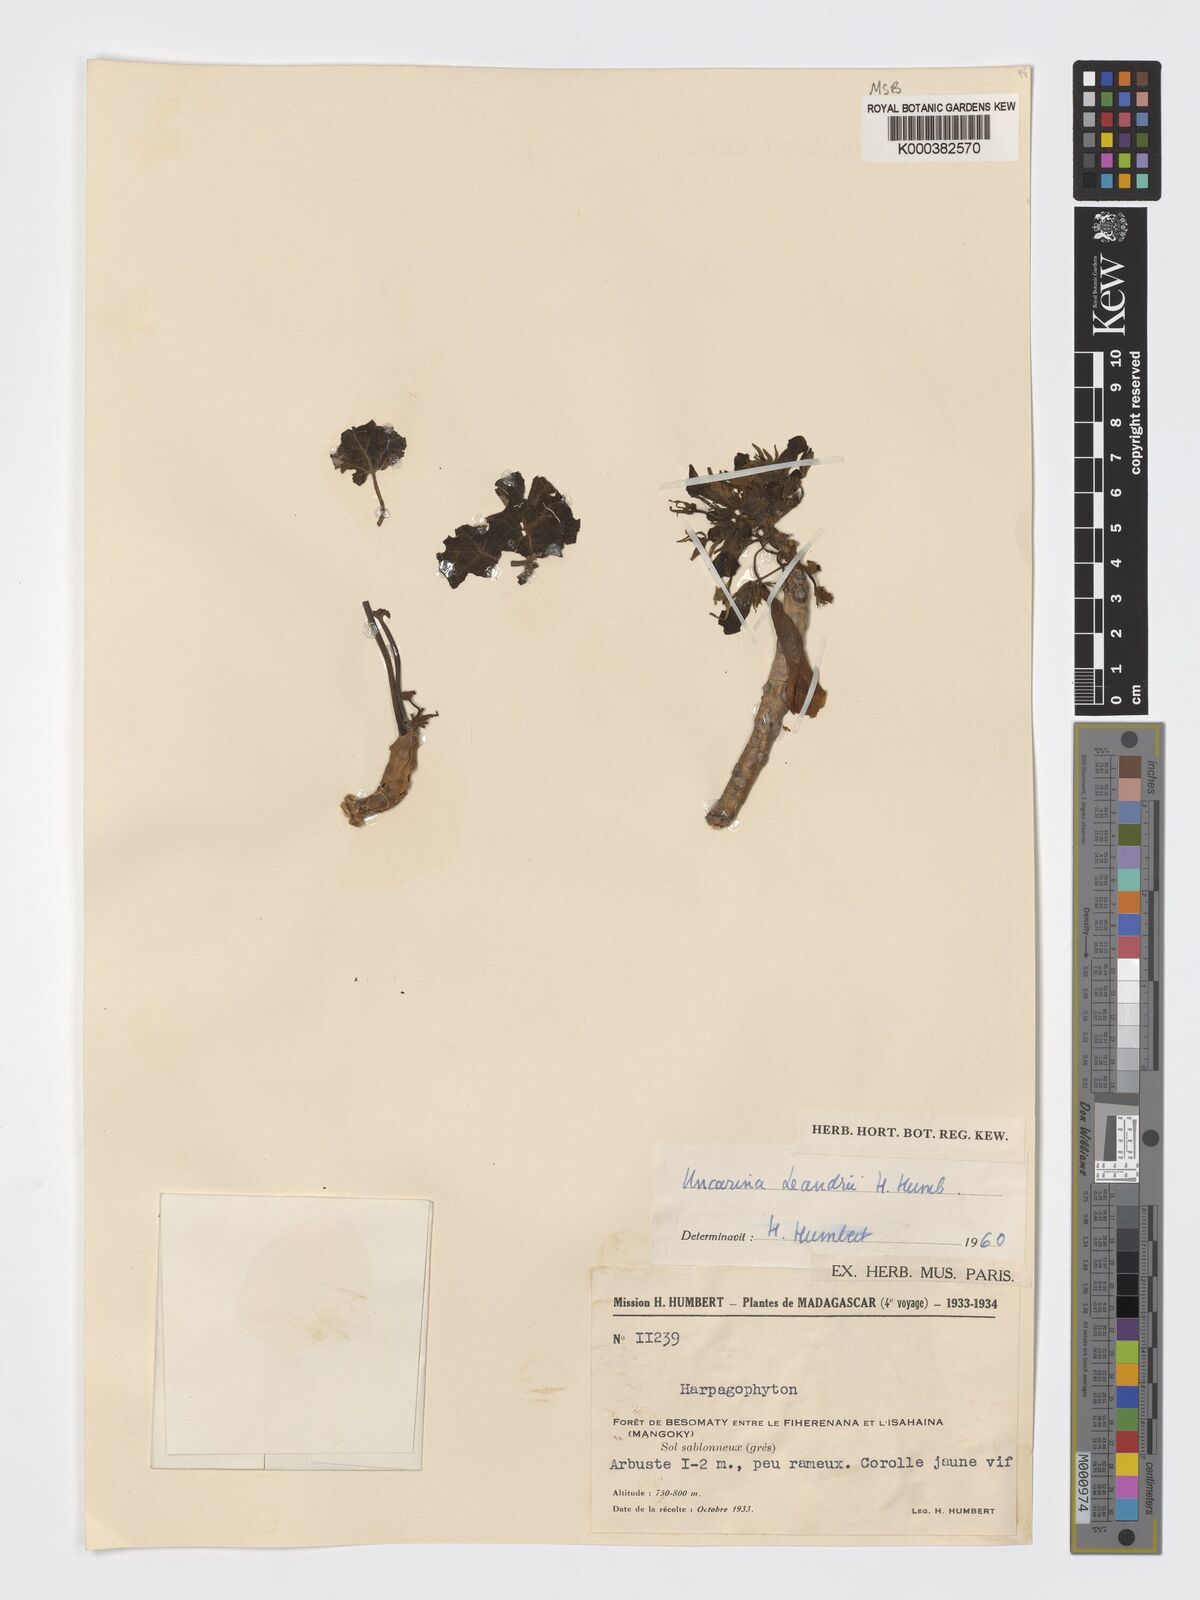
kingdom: Plantae
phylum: Tracheophyta
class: Magnoliopsida
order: Lamiales
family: Pedaliaceae
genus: Uncarina
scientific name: Uncarina leandrii
